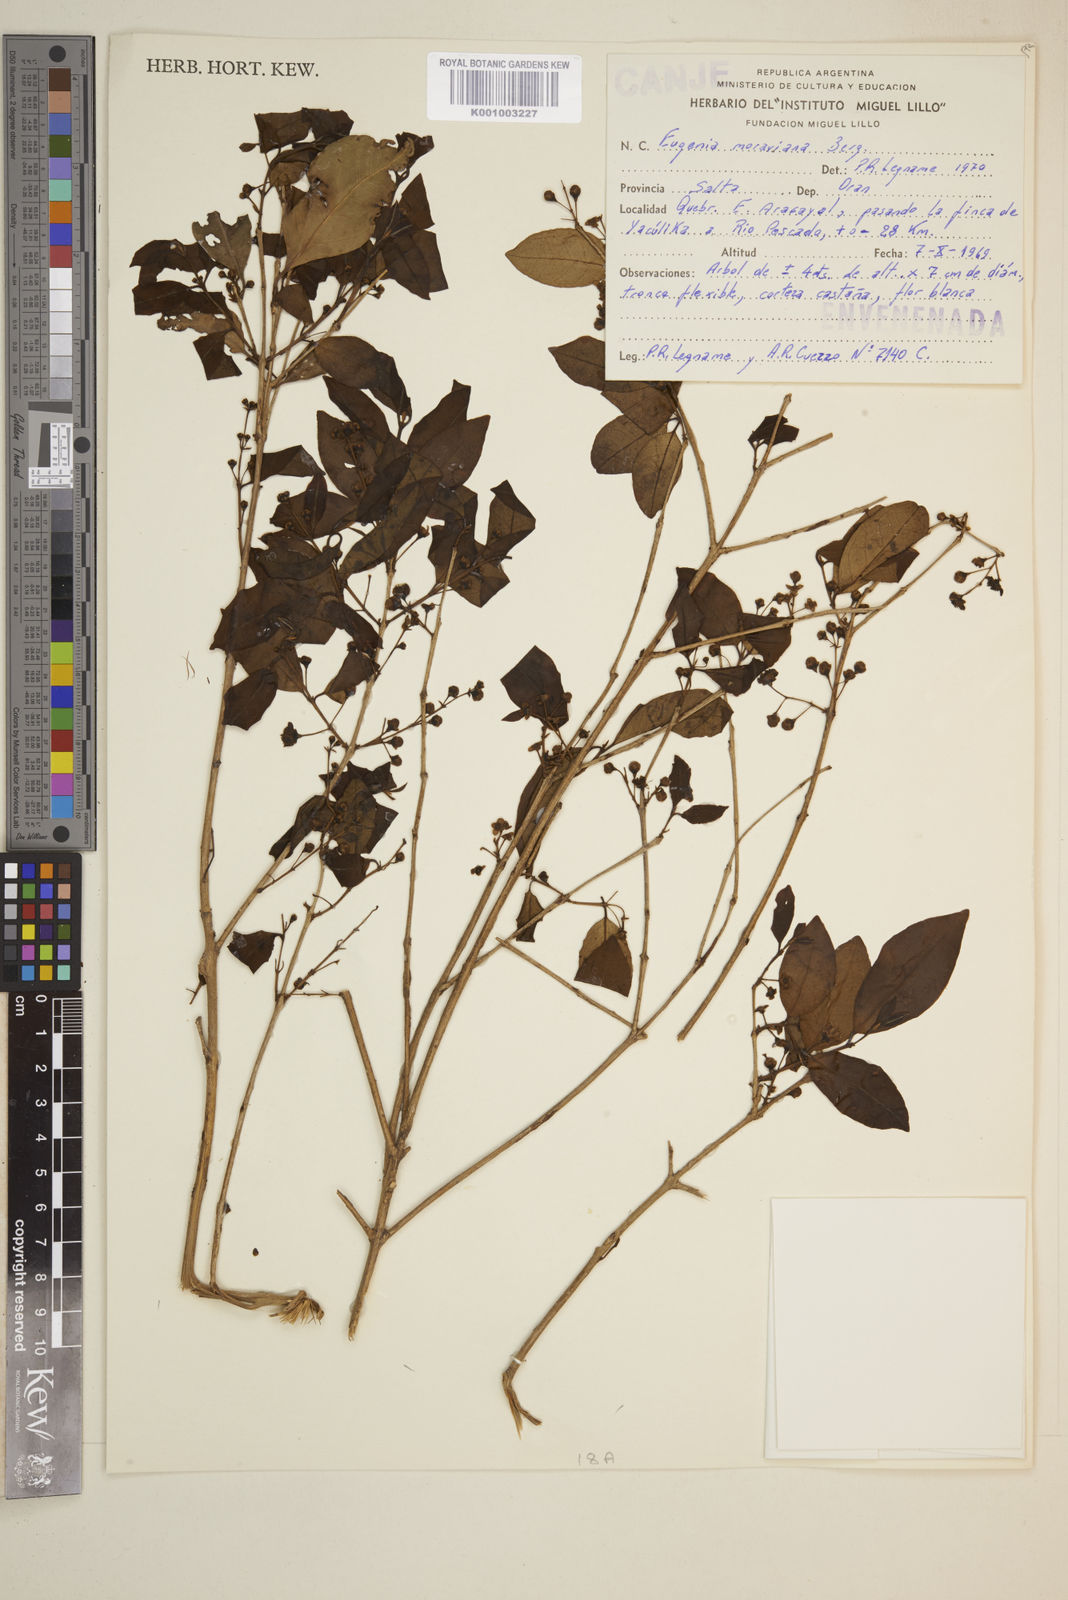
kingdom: Plantae
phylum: Tracheophyta
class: Magnoliopsida
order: Myrtales
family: Myrtaceae
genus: Eugenia
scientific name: Eugenia moraviana
